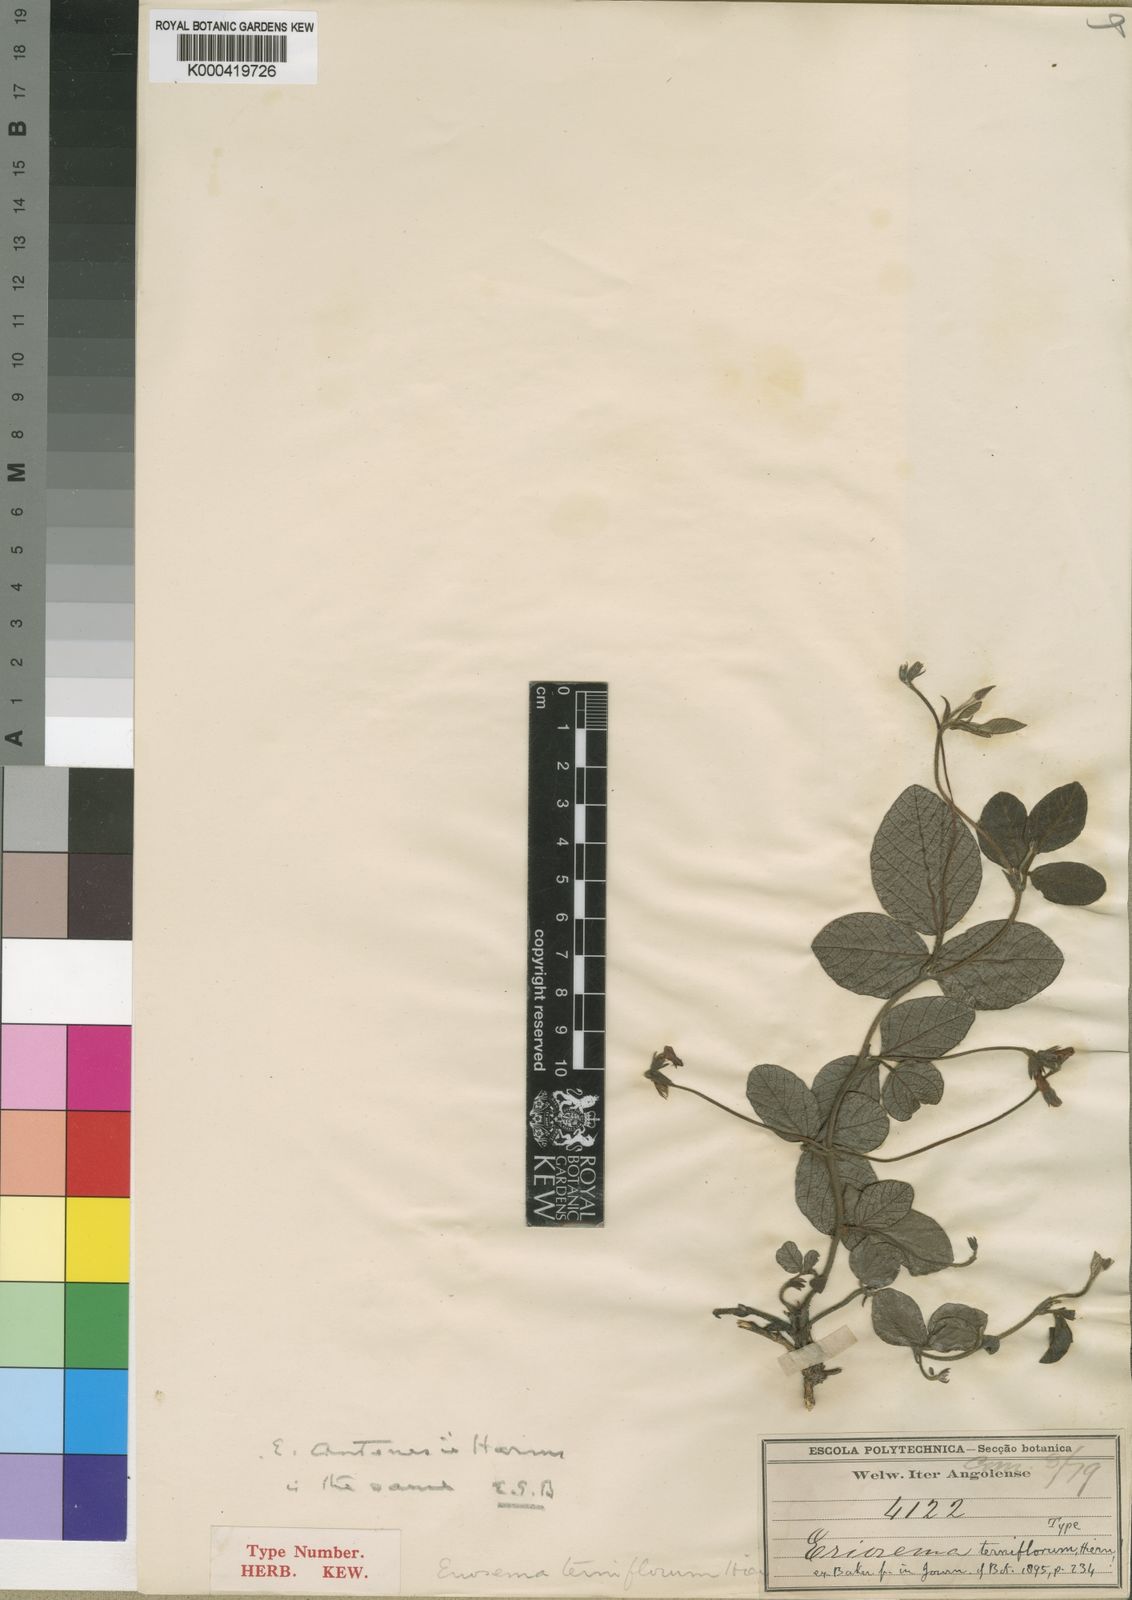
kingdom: Plantae
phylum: Tracheophyta
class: Magnoliopsida
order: Fabales
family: Fabaceae
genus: Eriosema
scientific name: Eriosema terniflorum
